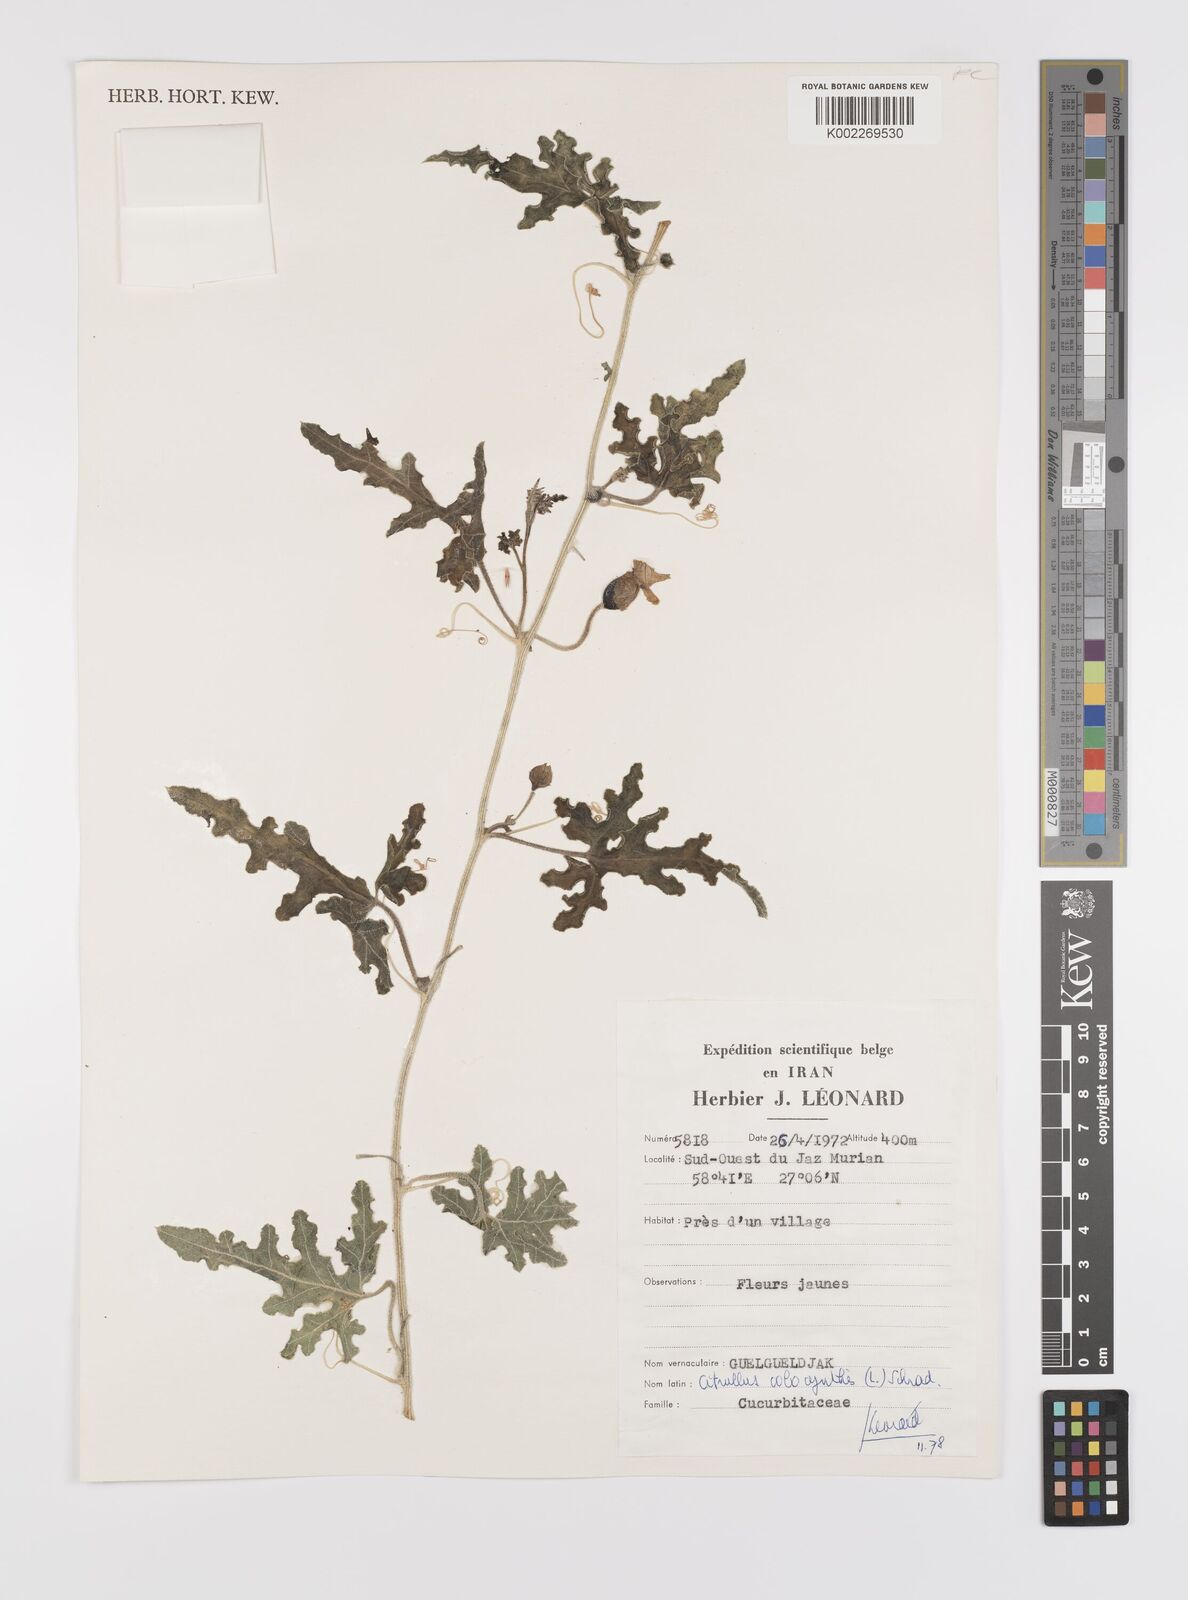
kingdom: Plantae
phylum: Tracheophyta
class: Magnoliopsida
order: Cucurbitales
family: Cucurbitaceae
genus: Citrullus
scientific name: Citrullus colocynthis
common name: Colocynth
